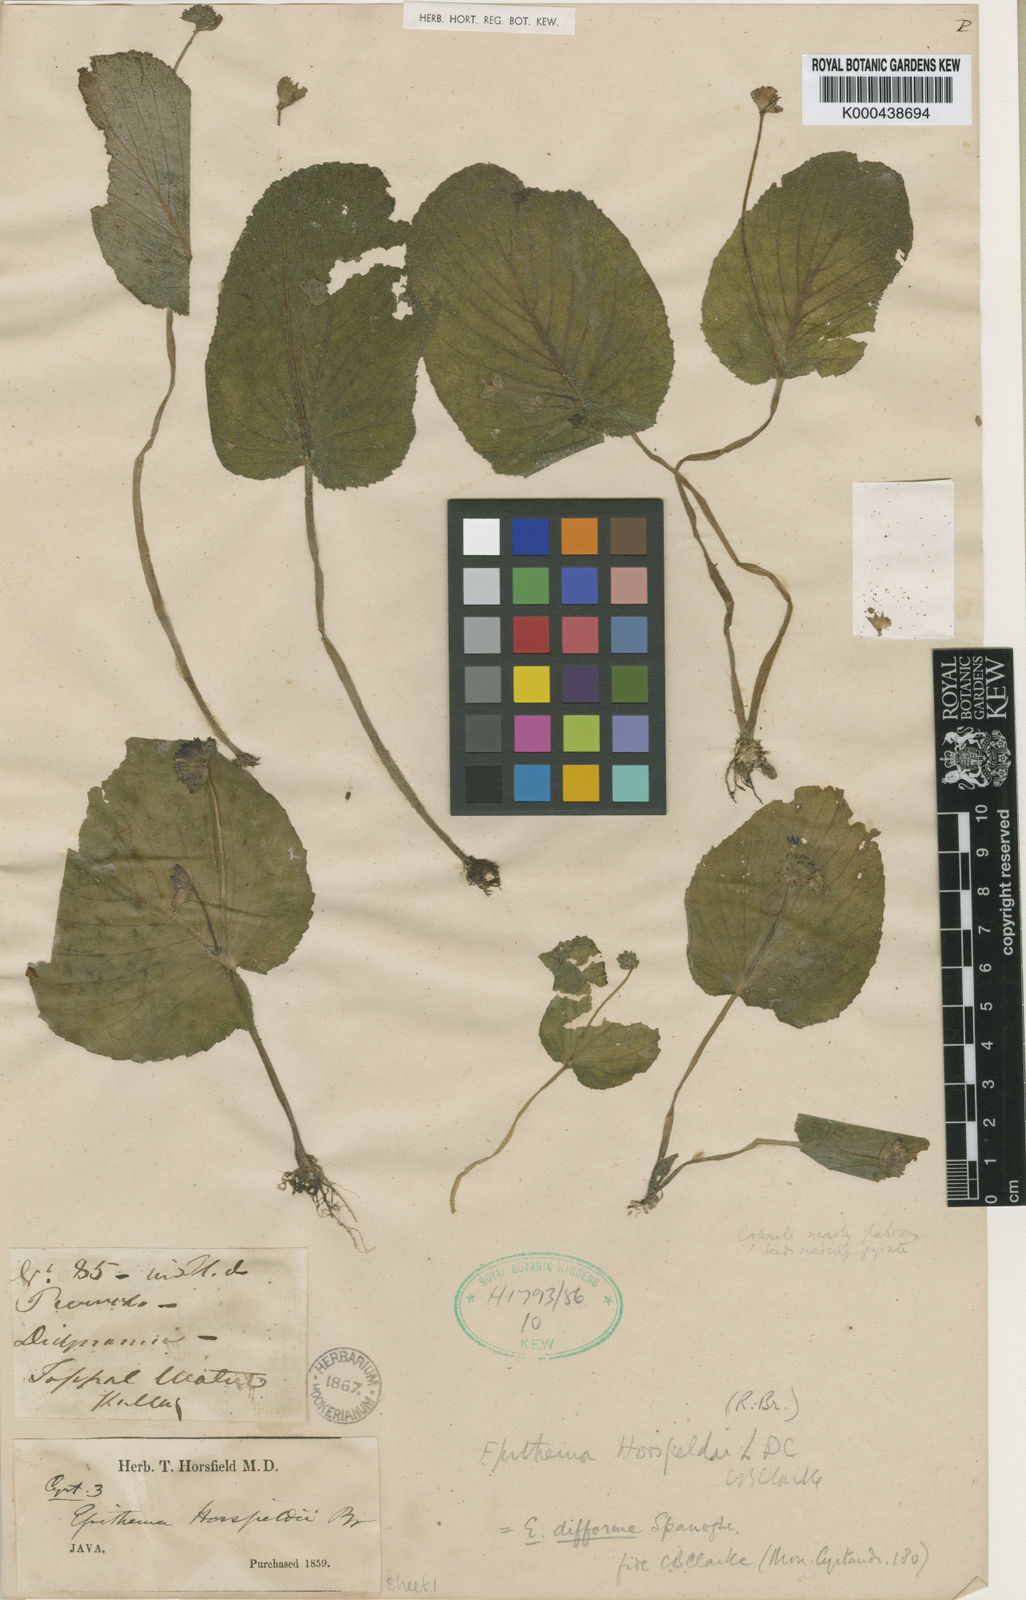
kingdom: Plantae
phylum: Tracheophyta
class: Magnoliopsida
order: Lamiales
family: Gesneriaceae
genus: Epithema
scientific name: Epithema horsfieldii
